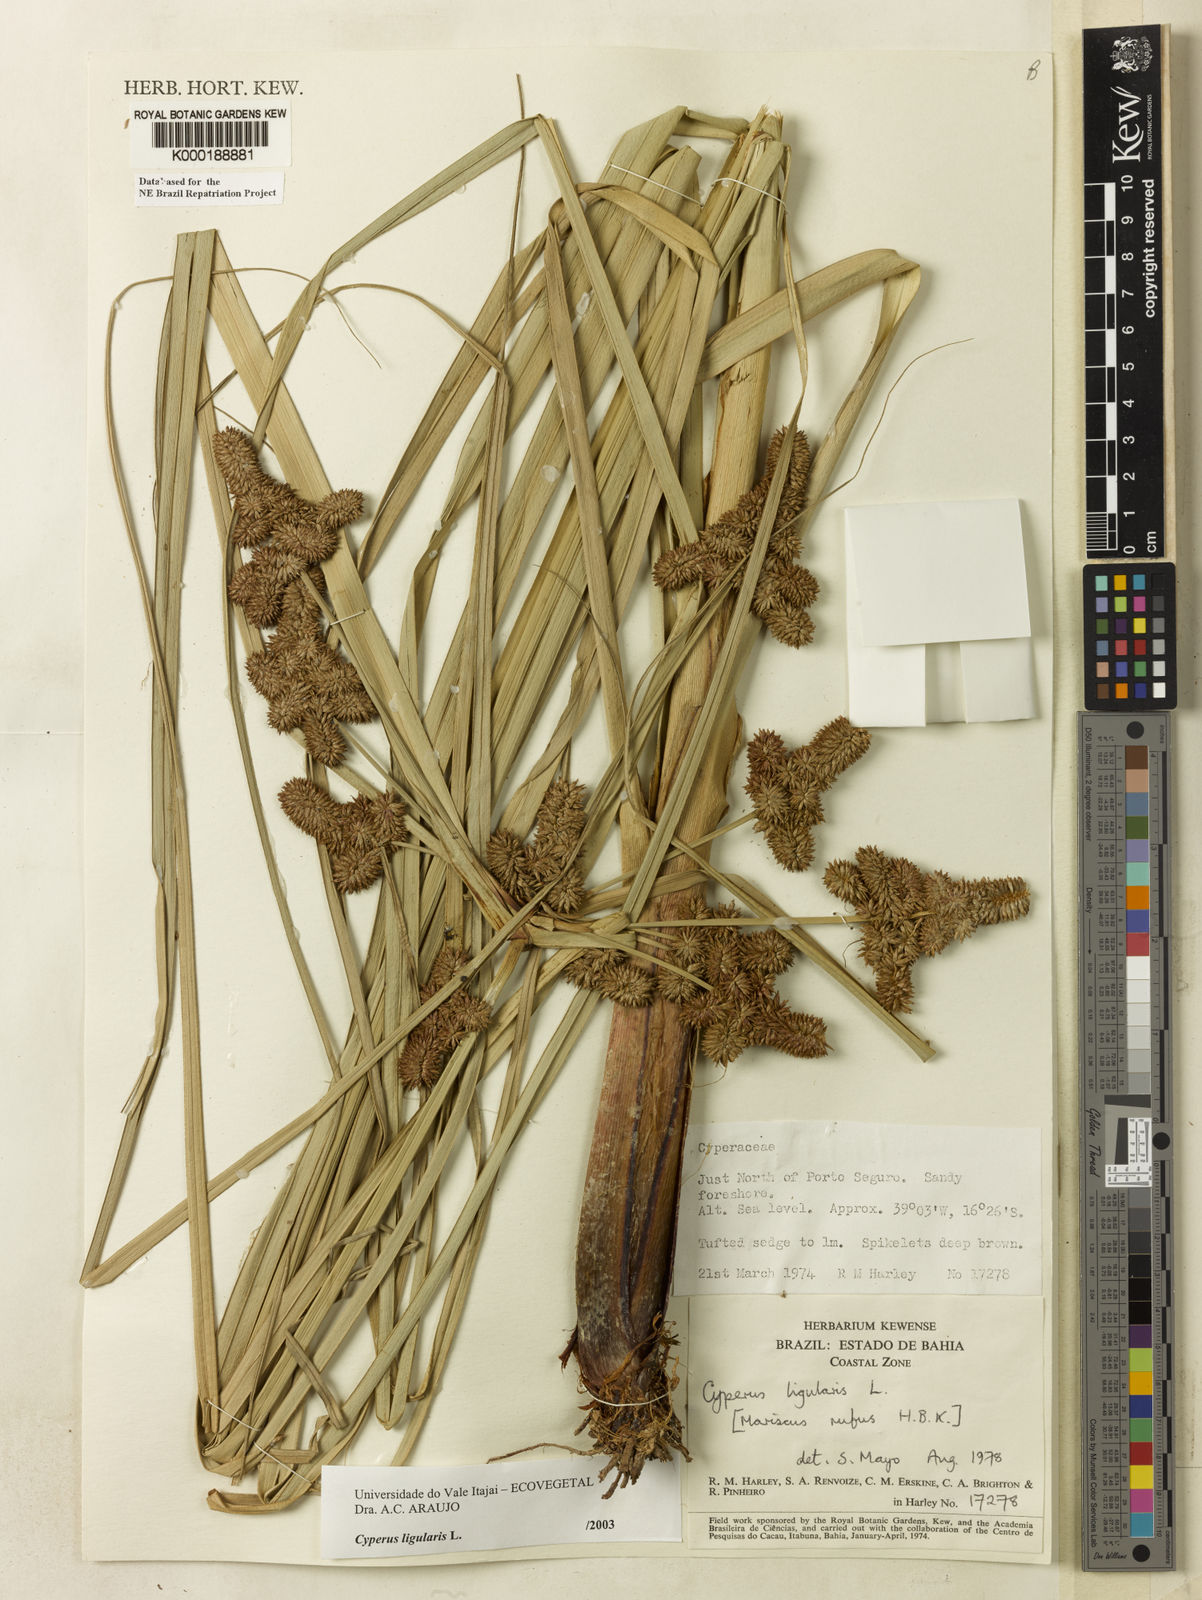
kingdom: Plantae
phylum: Tracheophyta
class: Liliopsida
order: Poales
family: Cyperaceae
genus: Cyperus
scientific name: Cyperus ligularis
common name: Swamp flat sedge
